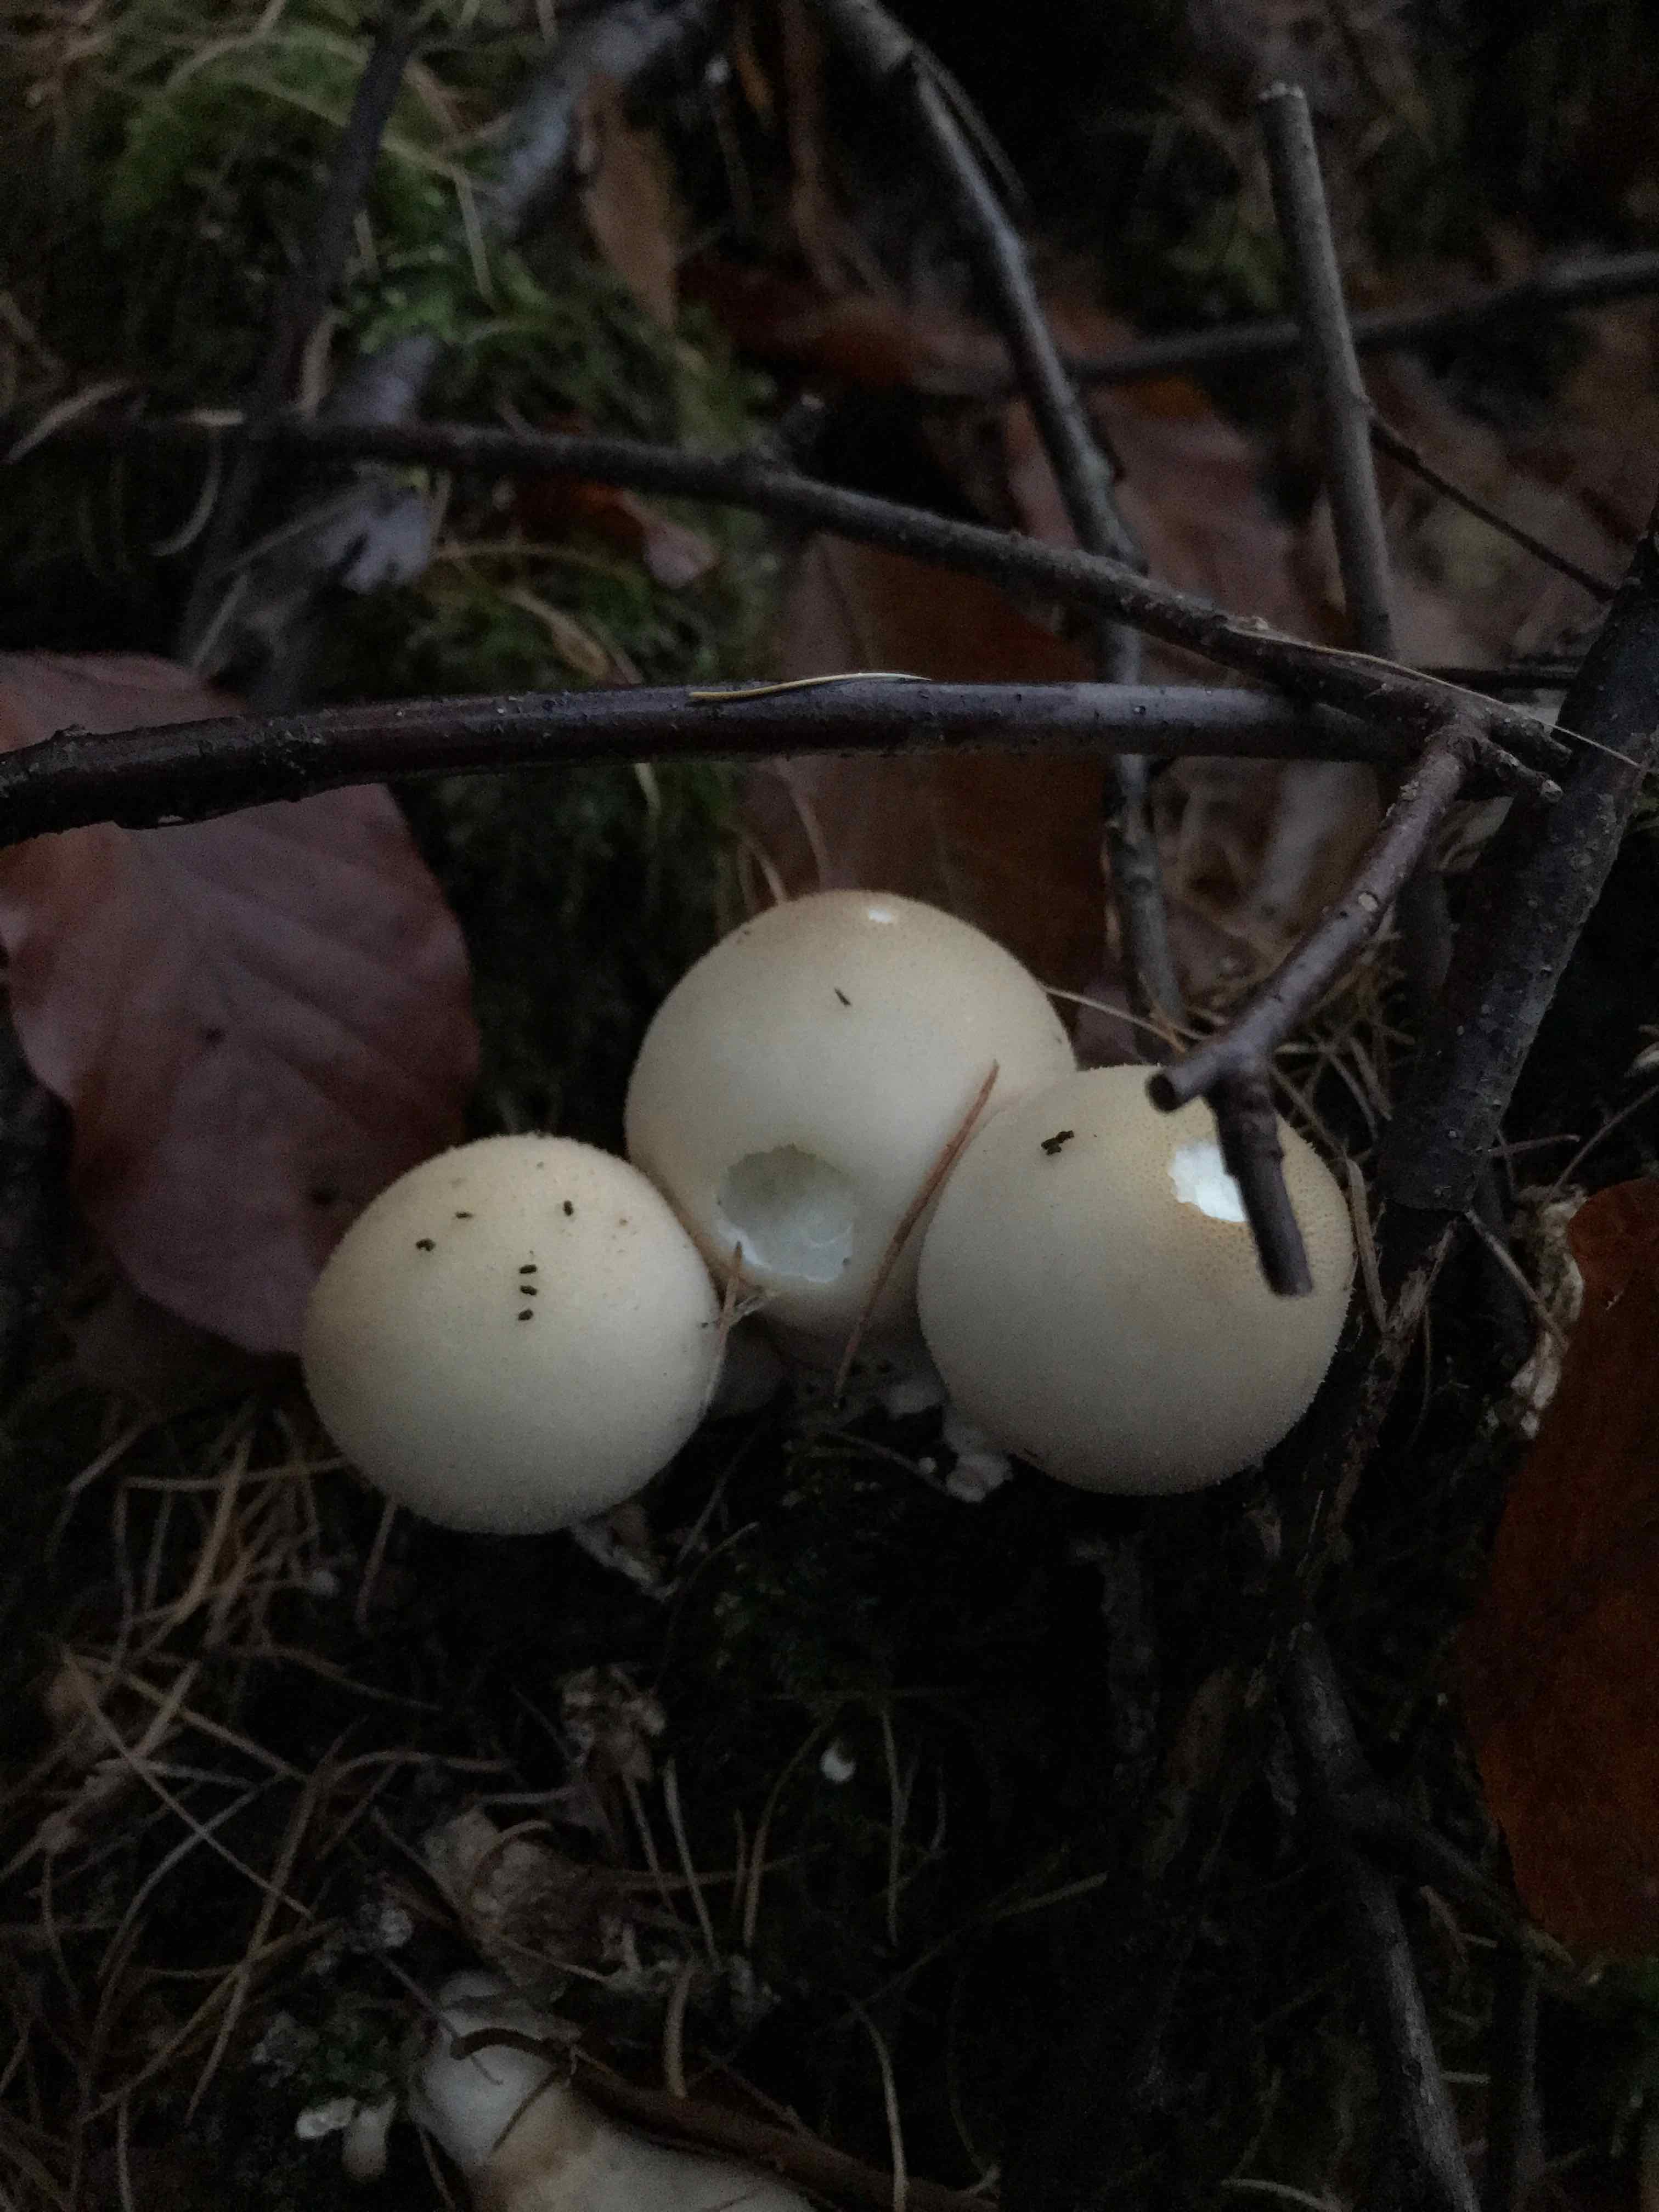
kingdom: Fungi
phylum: Basidiomycota
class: Agaricomycetes
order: Agaricales
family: Lycoperdaceae
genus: Apioperdon
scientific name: Apioperdon pyriforme
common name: pære-støvbold
